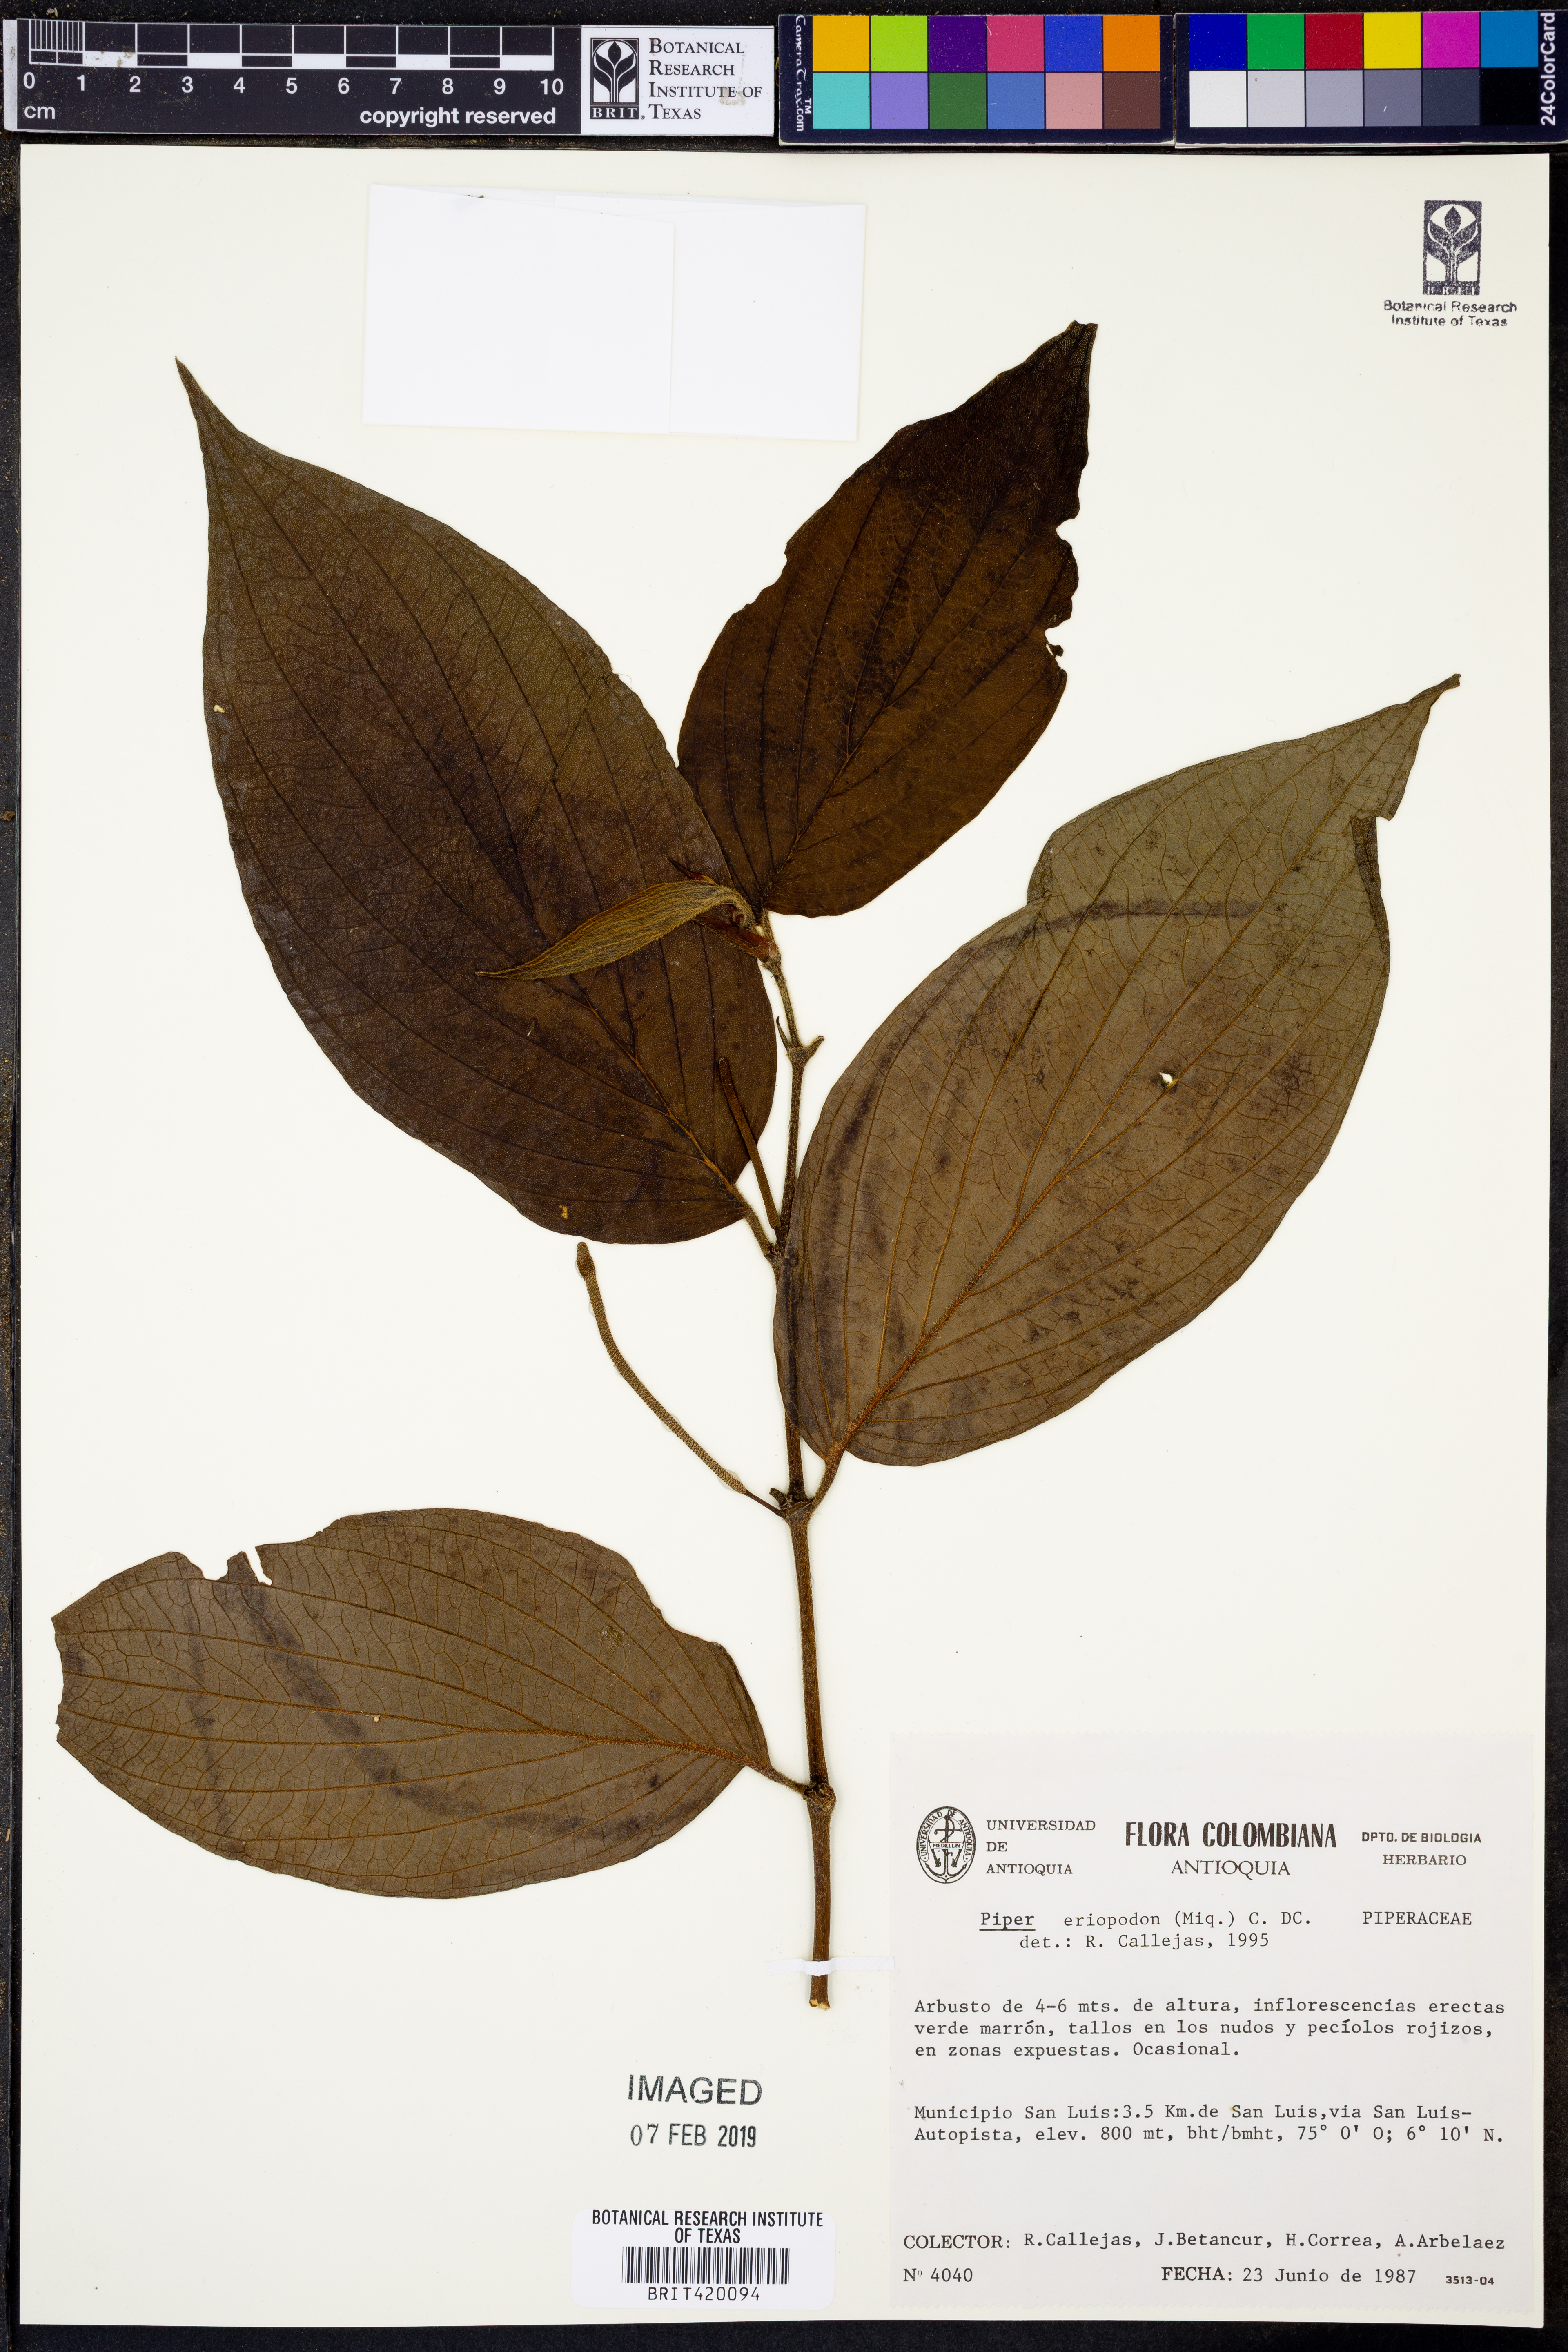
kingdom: Plantae
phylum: Tracheophyta
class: Magnoliopsida
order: Piperales
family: Piperaceae
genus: Piper
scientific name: Piper eriopodon
